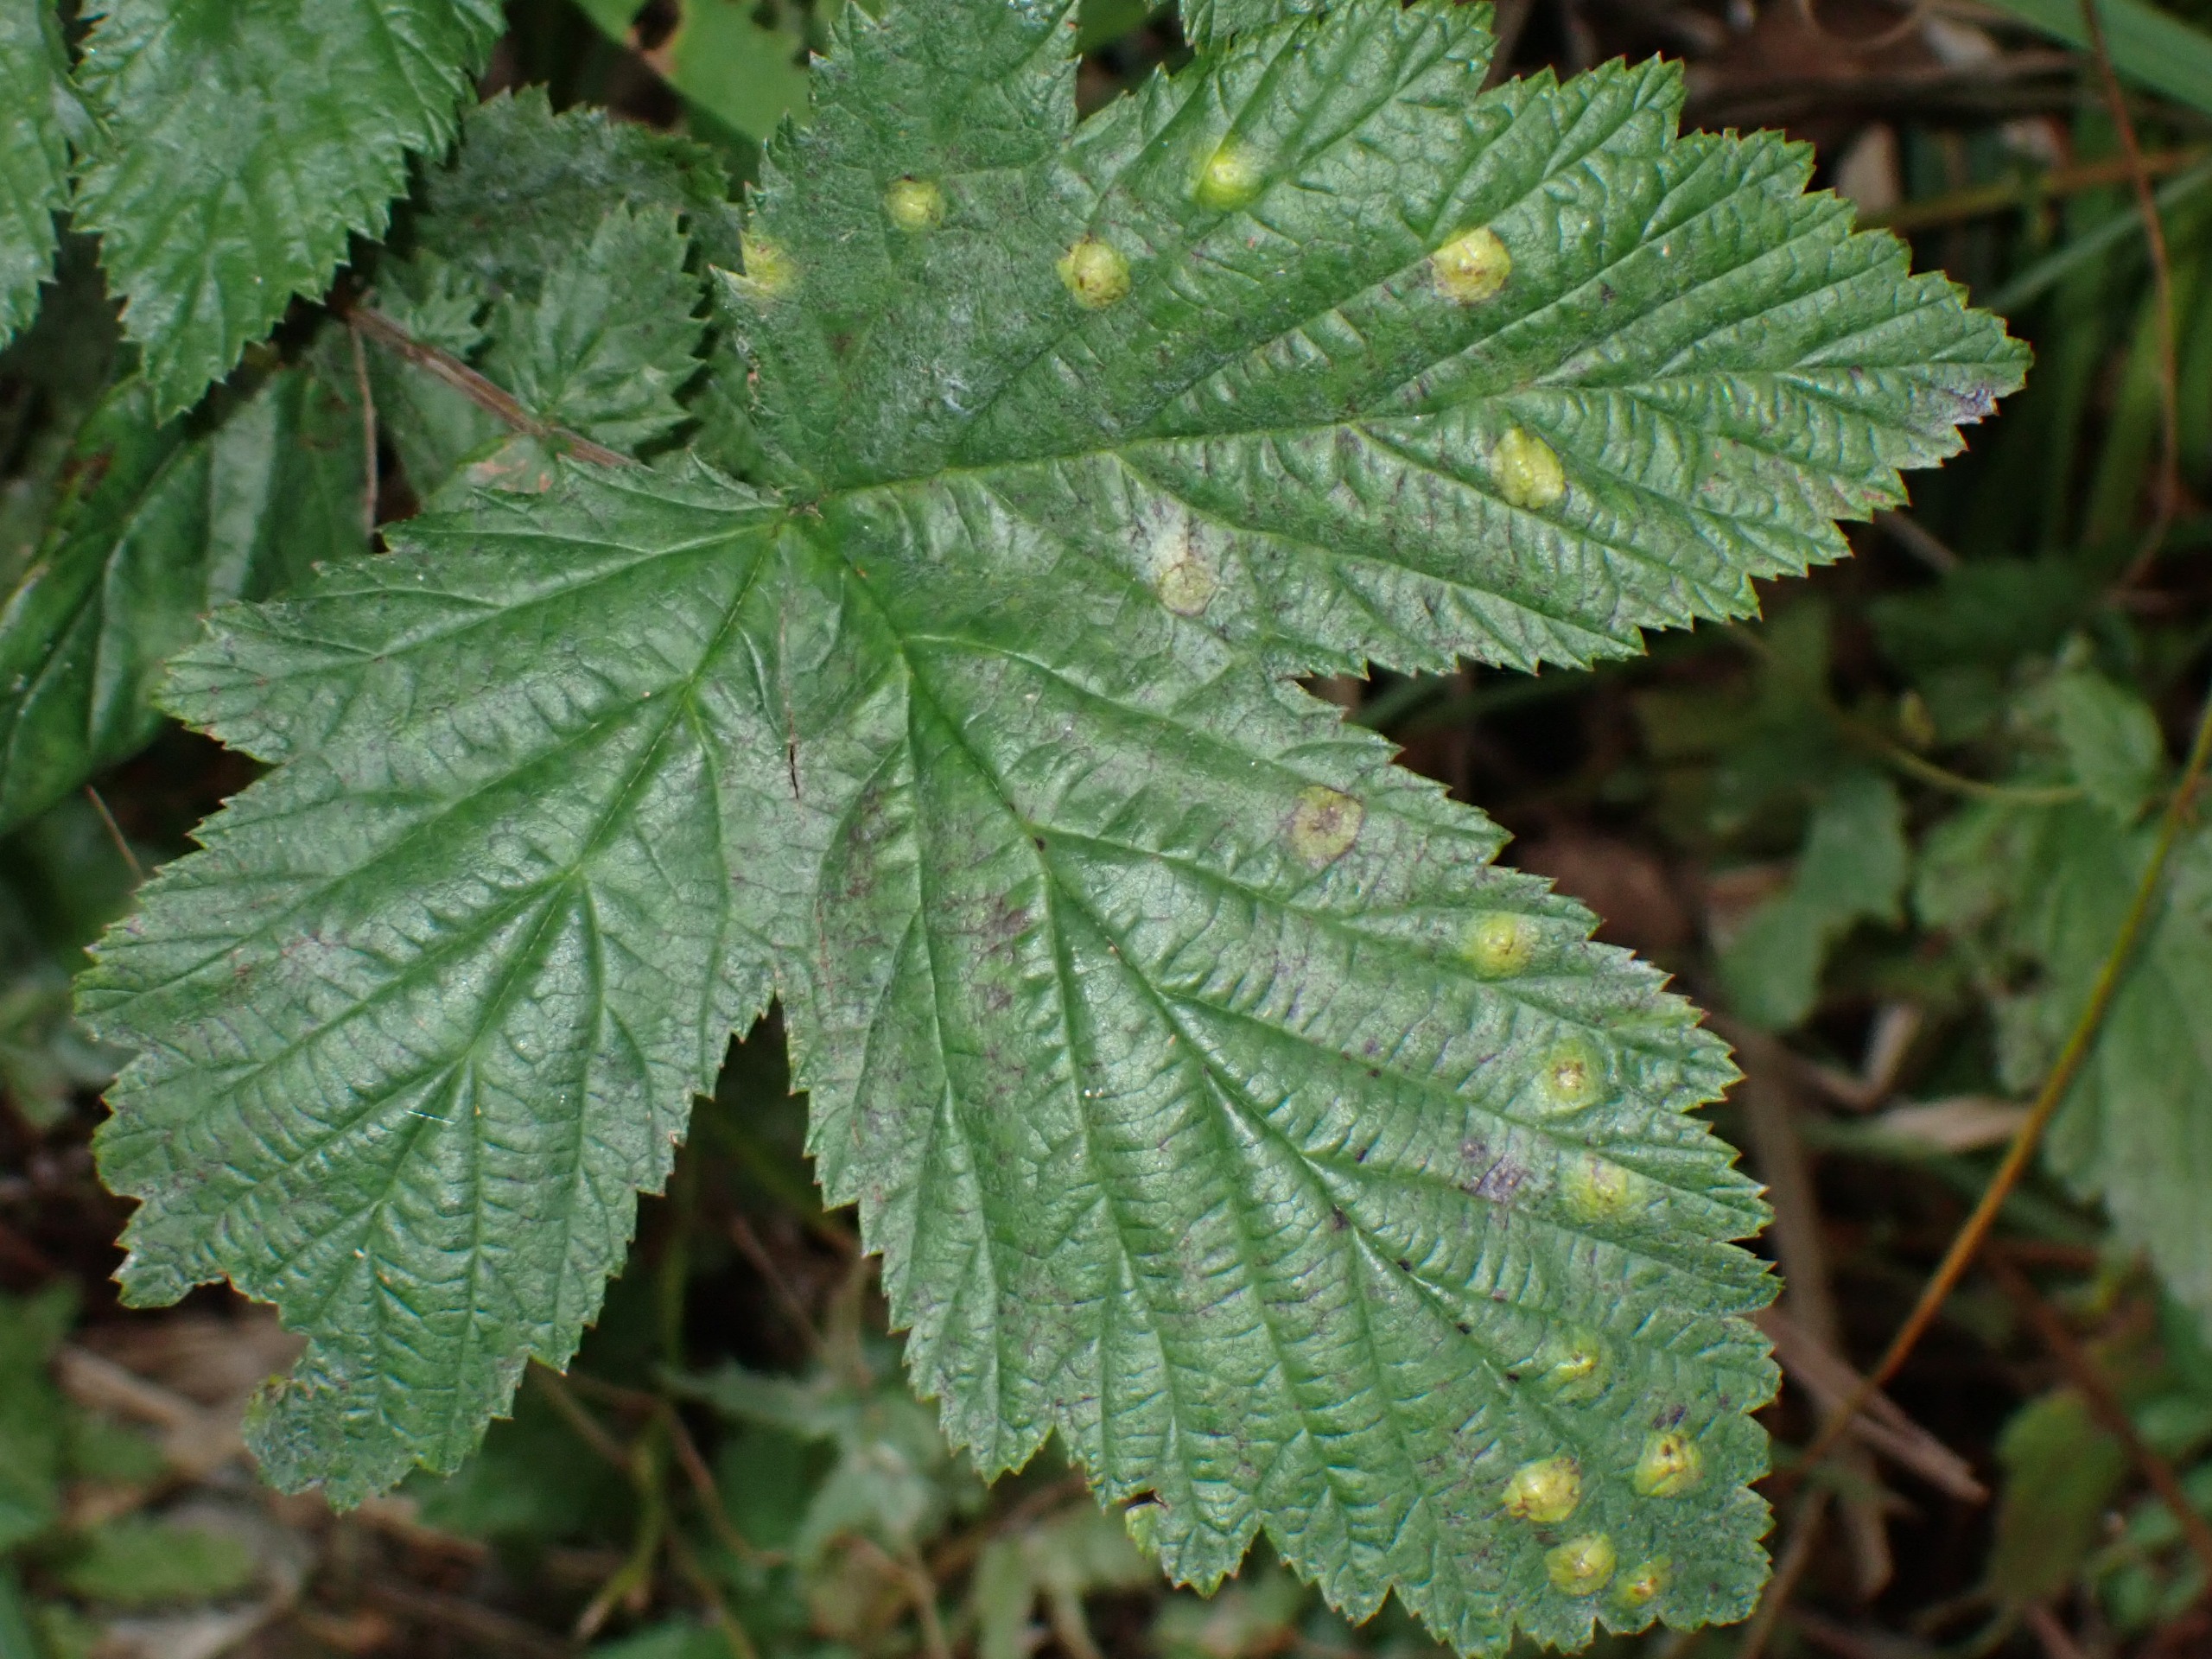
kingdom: Animalia
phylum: Arthropoda
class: Insecta
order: Diptera
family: Cecidomyiidae
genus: Dasineura
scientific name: Dasineura pustulans
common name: Mjødurtblistgalmyg
